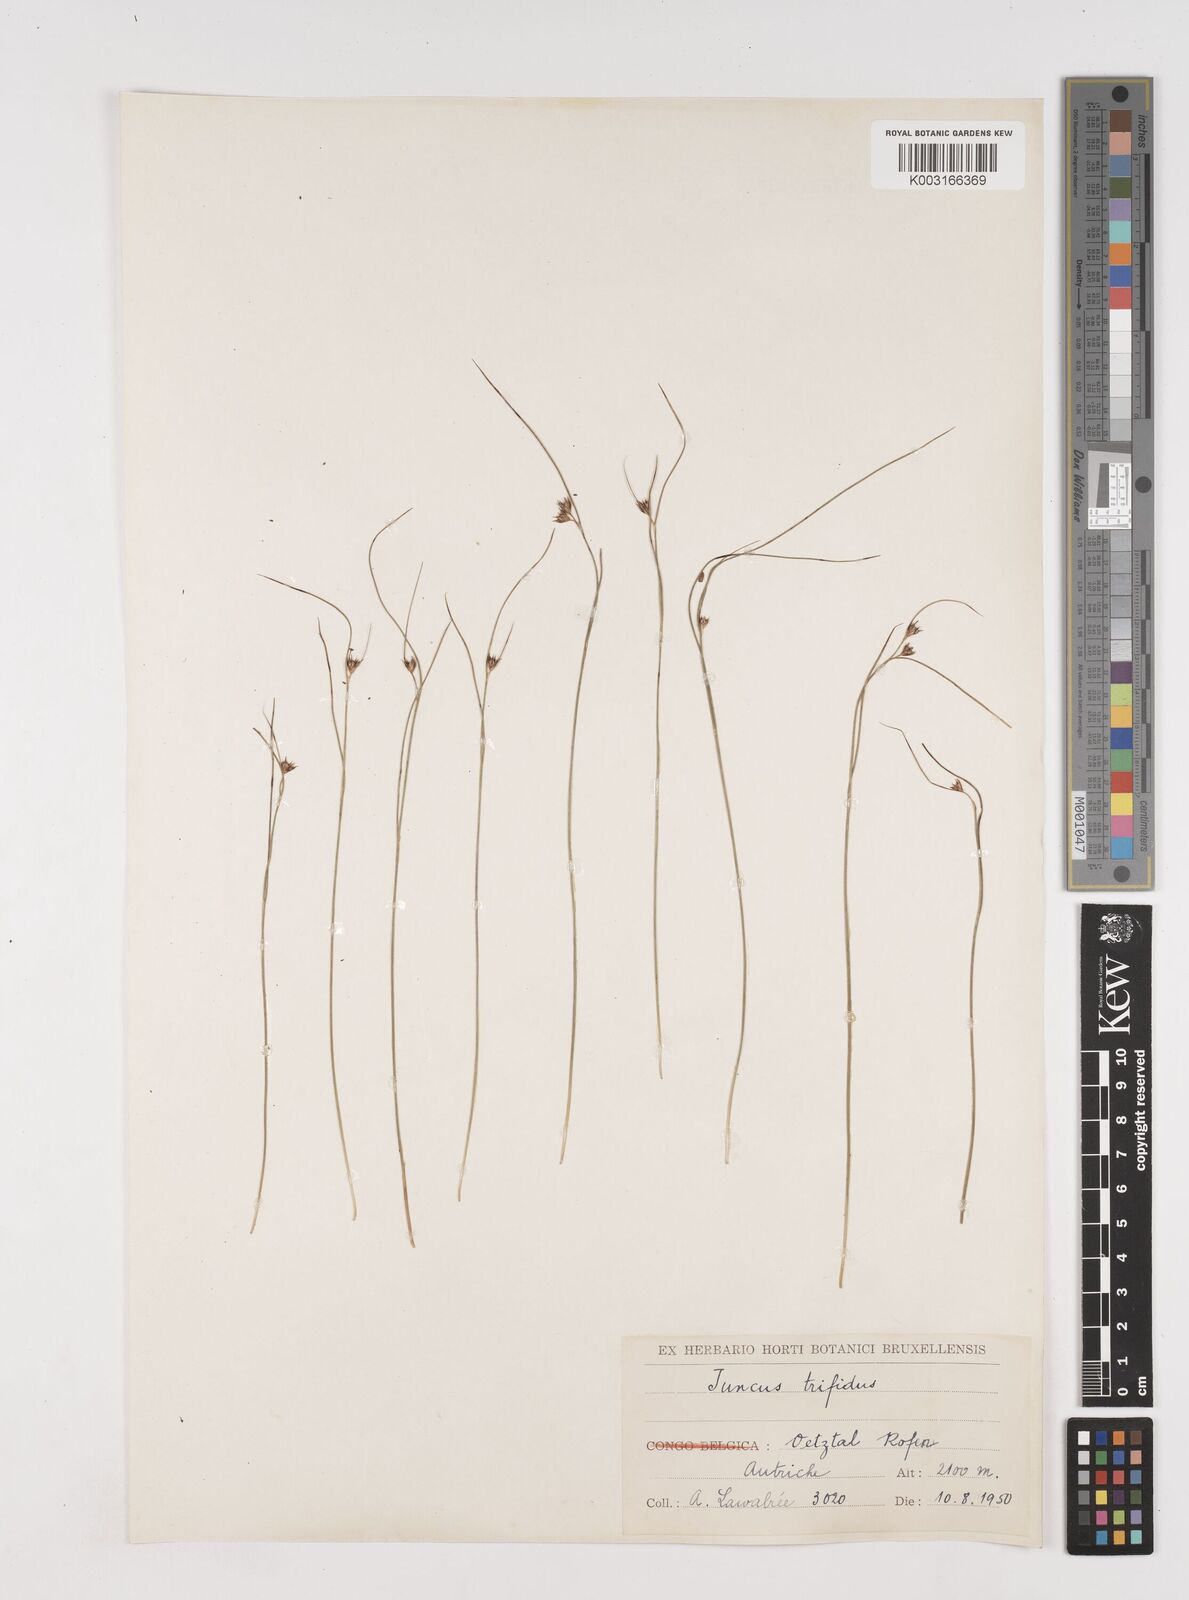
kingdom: Plantae
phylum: Tracheophyta
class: Liliopsida
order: Poales
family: Juncaceae
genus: Oreojuncus
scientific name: Oreojuncus trifidus
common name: Highland rush
